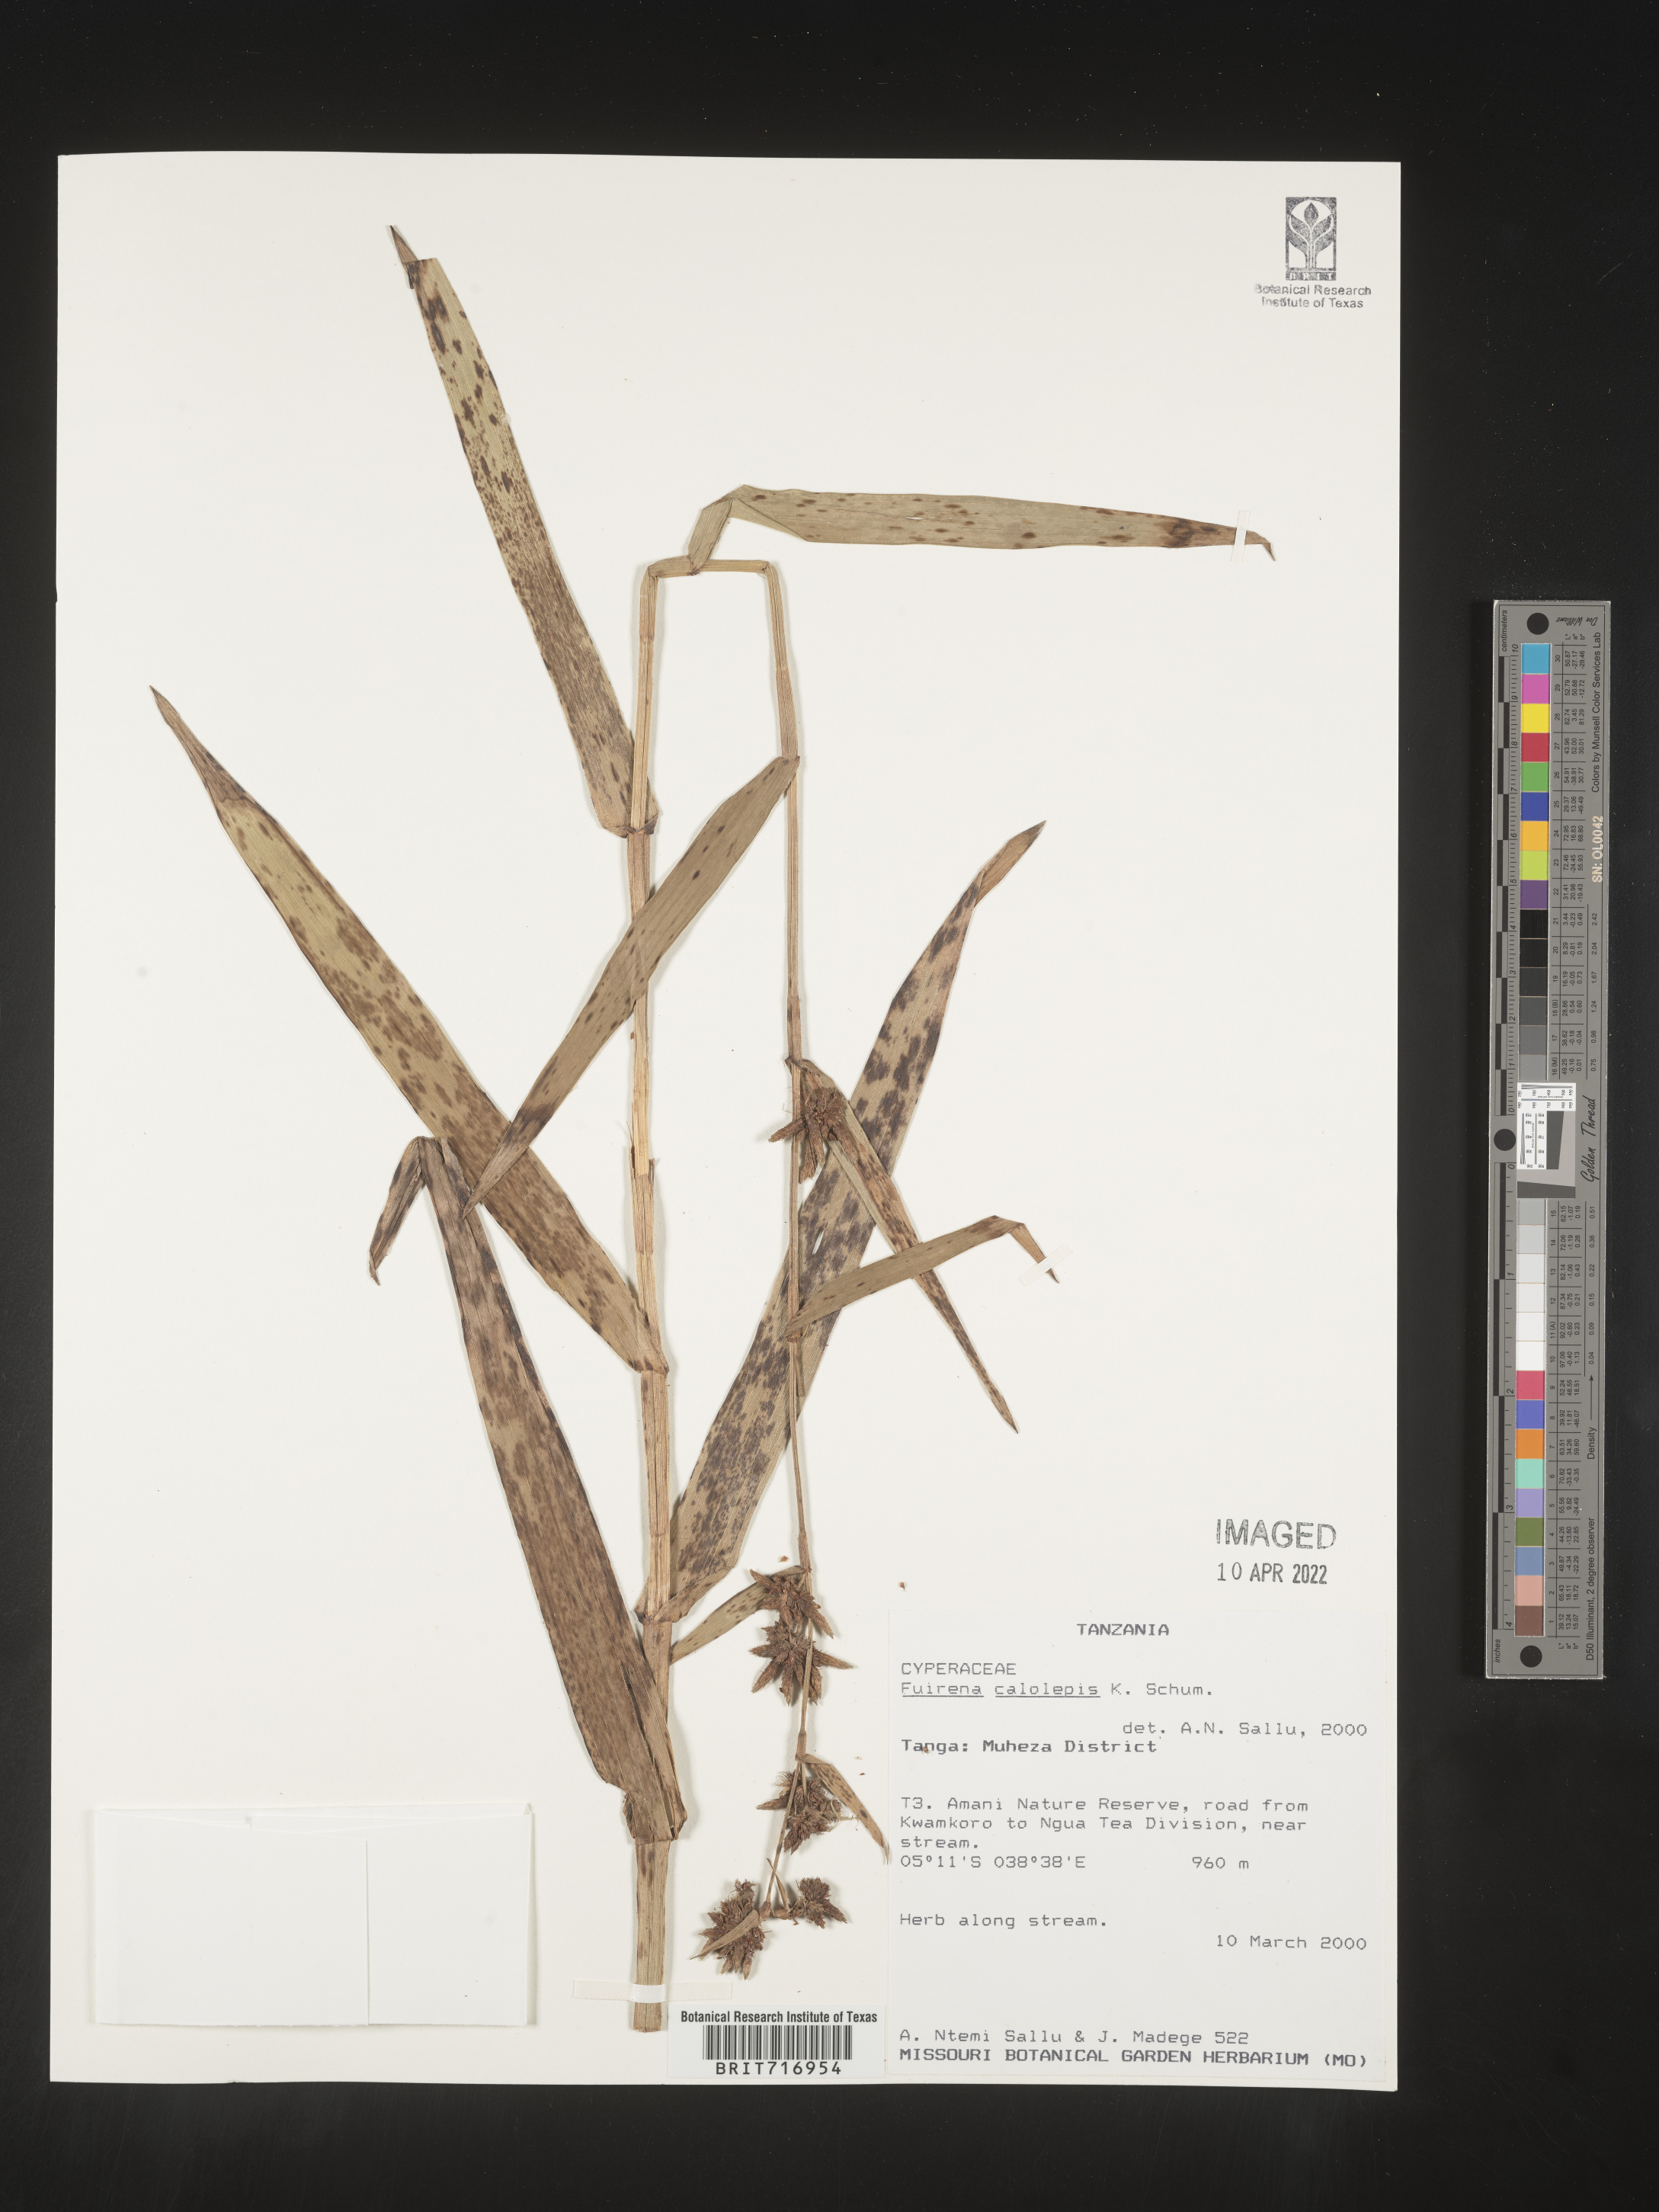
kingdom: Plantae
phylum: Tracheophyta
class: Liliopsida
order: Poales
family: Cyperaceae
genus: Fuirena
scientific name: Fuirena
